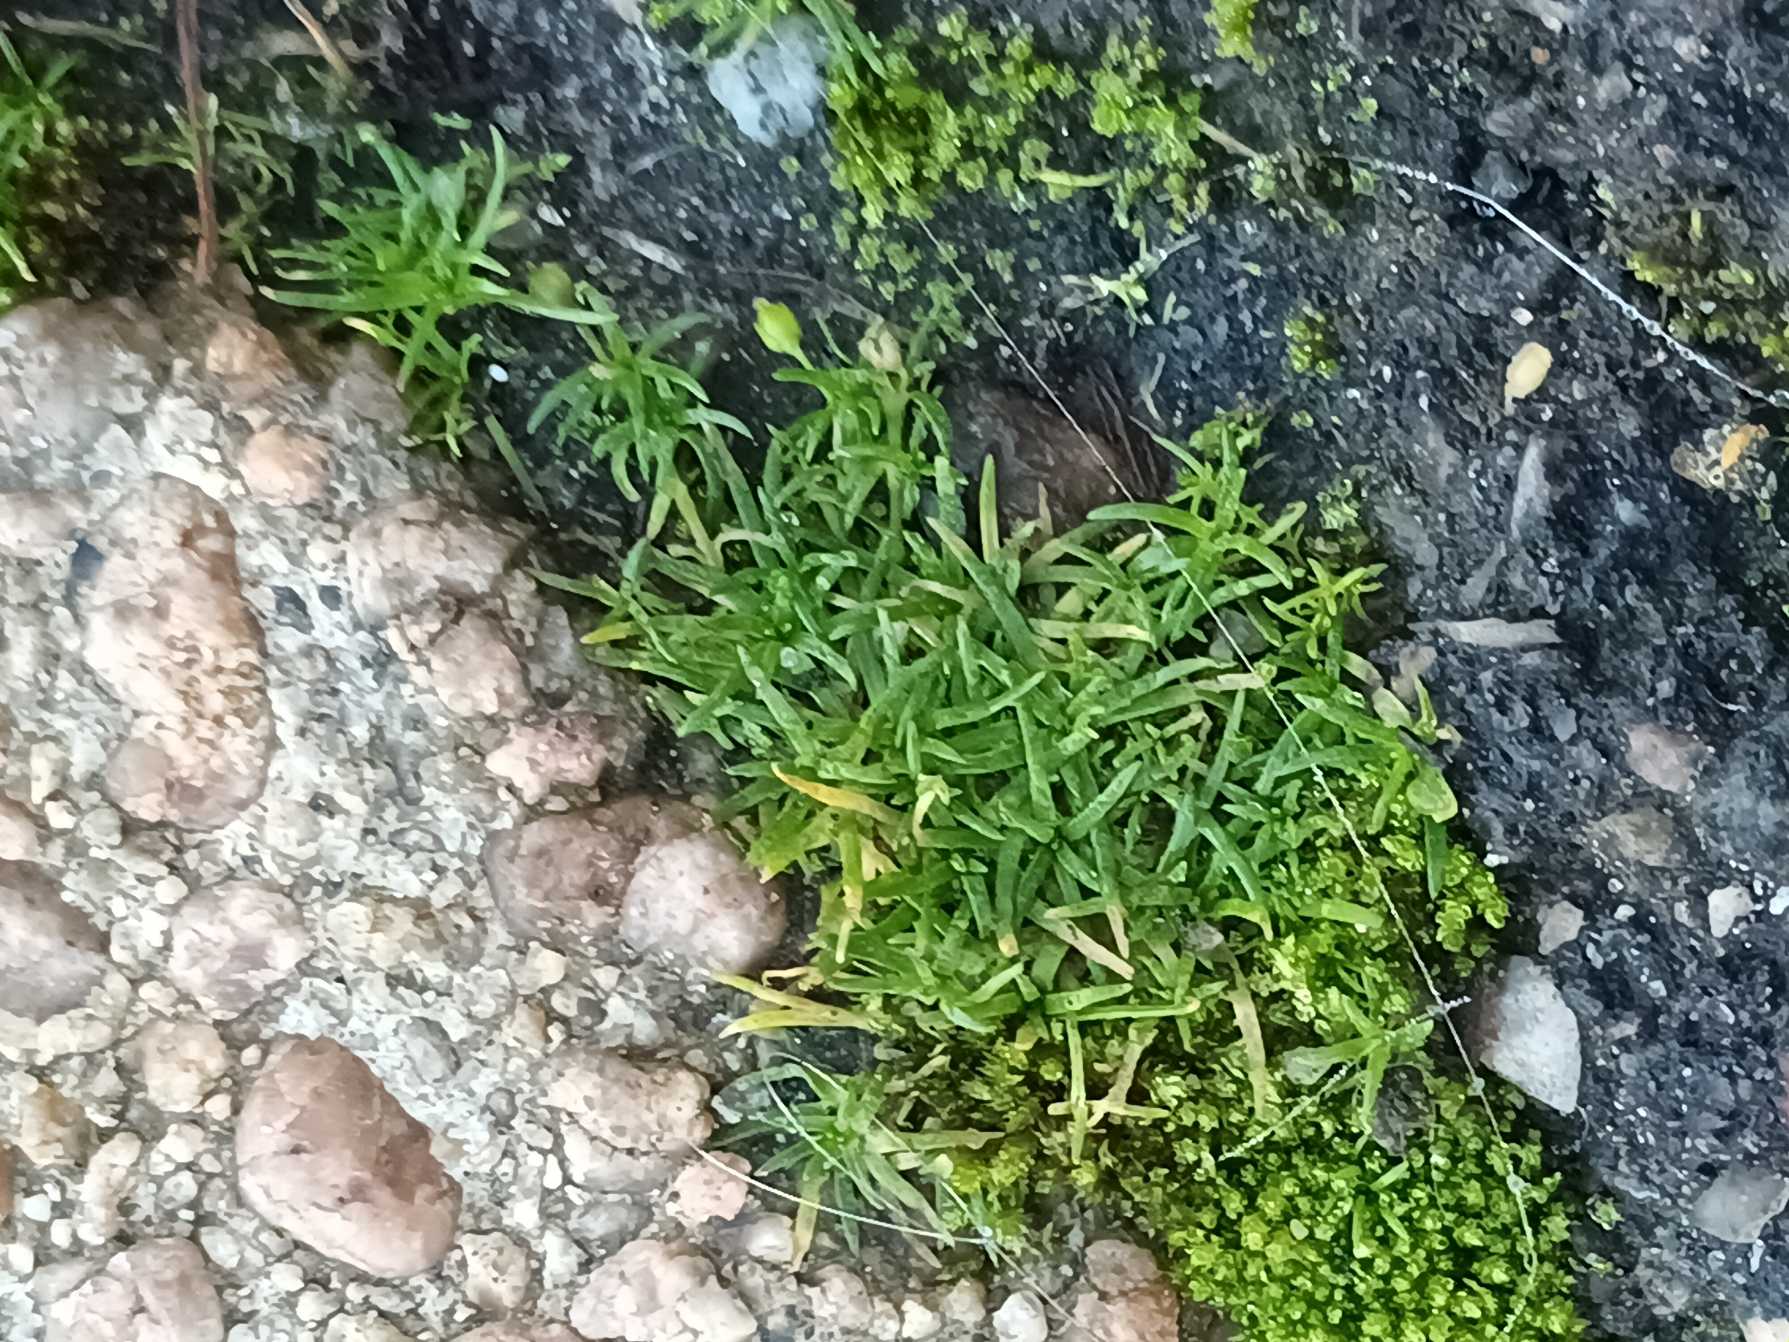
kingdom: Plantae
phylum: Tracheophyta
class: Magnoliopsida
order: Caryophyllales
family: Caryophyllaceae
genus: Sagina
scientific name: Sagina procumbens
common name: Almindelig firling
